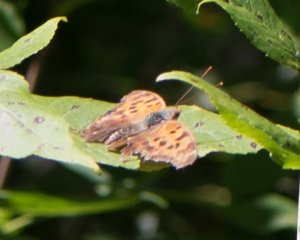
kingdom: Animalia
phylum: Arthropoda
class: Insecta
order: Lepidoptera
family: Nymphalidae
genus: Polygonia
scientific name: Polygonia interrogationis
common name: Question Mark
